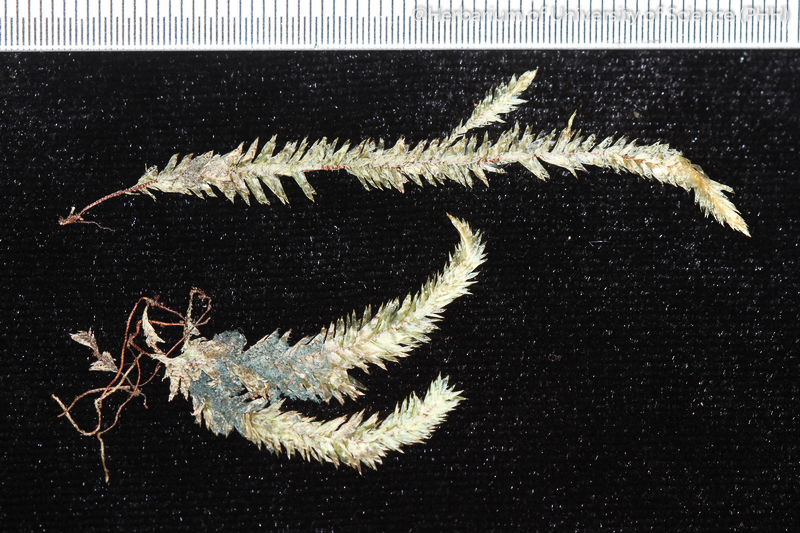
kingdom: Plantae
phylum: Bryophyta
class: Bryopsida
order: Hypnales
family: Pterobryaceae
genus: Cryptogonium
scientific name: Cryptogonium dubium
